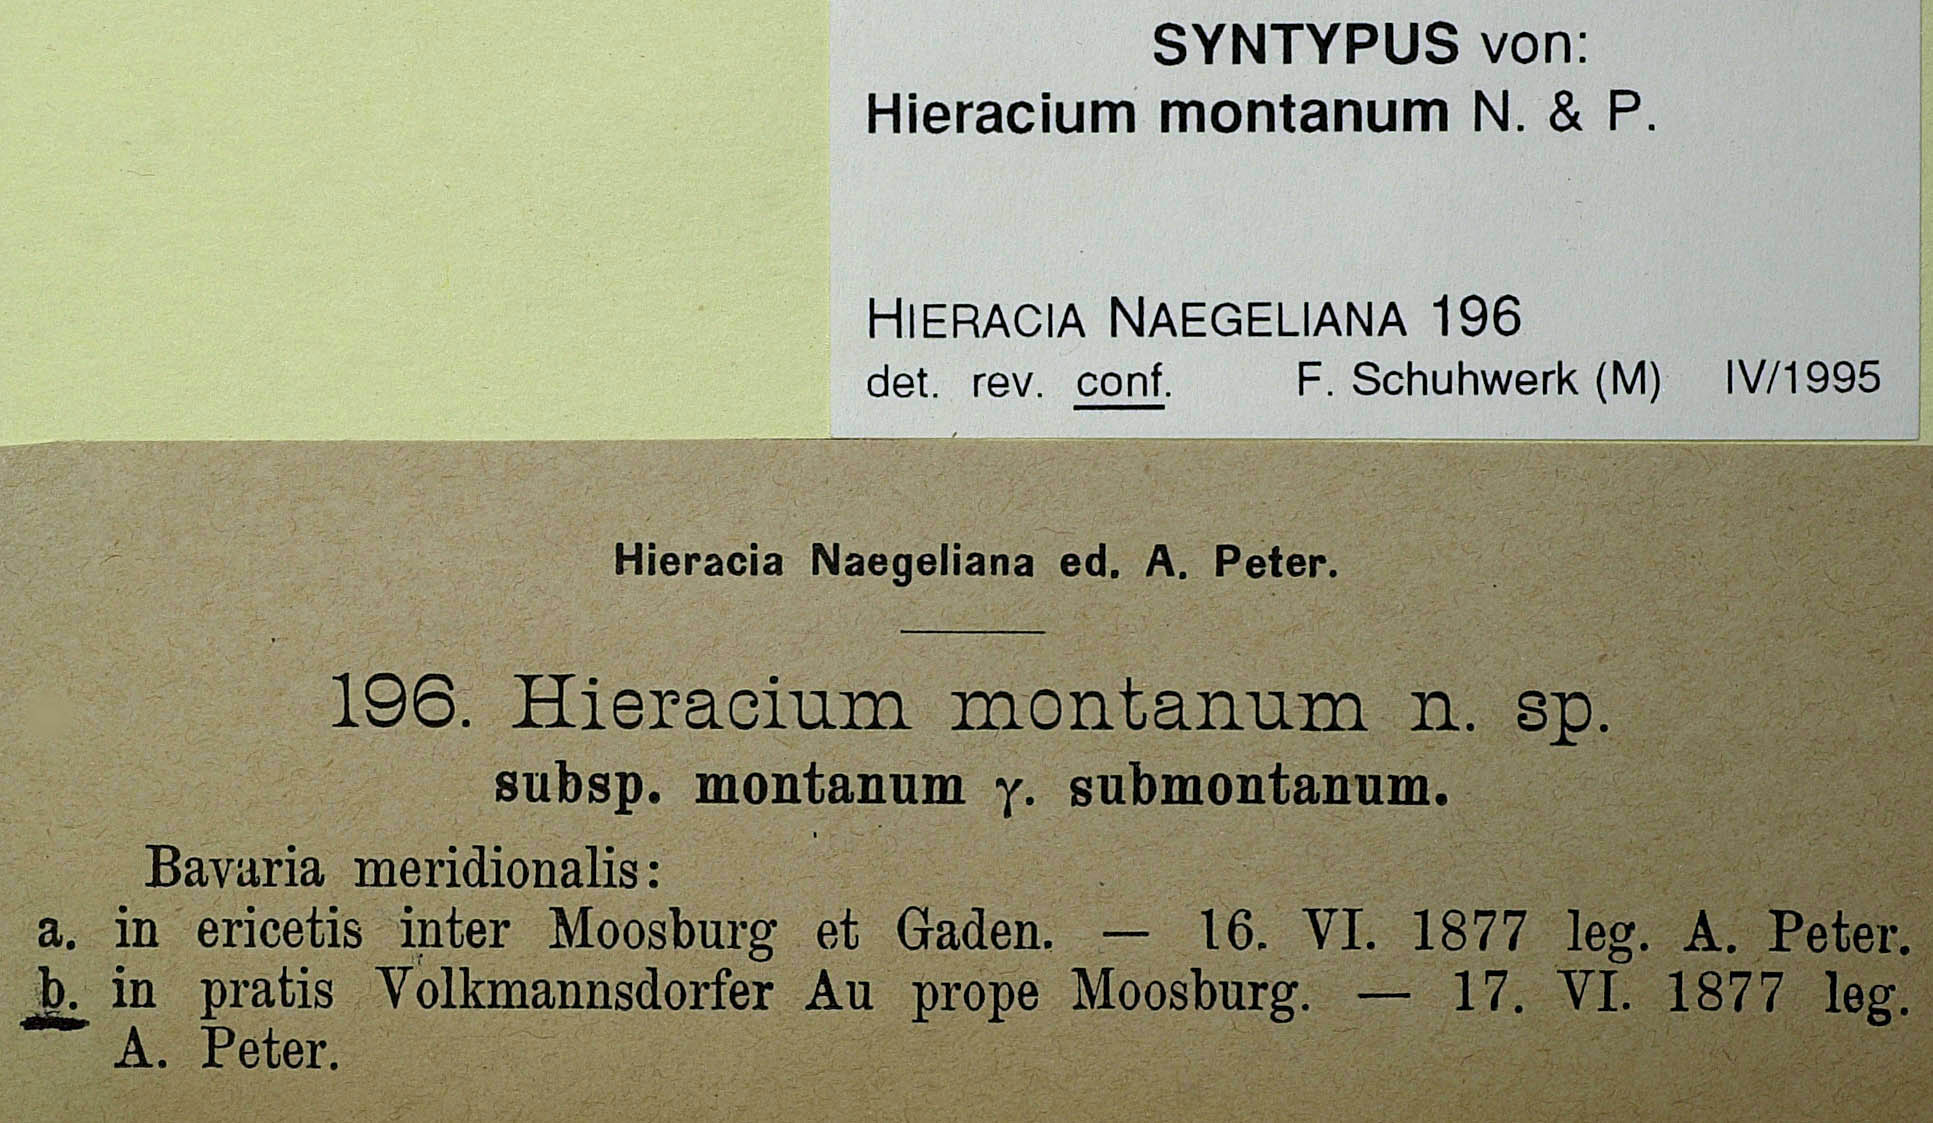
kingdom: Plantae
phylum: Tracheophyta
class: Magnoliopsida
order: Asterales
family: Asteraceae
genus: Pilosella
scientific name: Pilosella chomatophila
